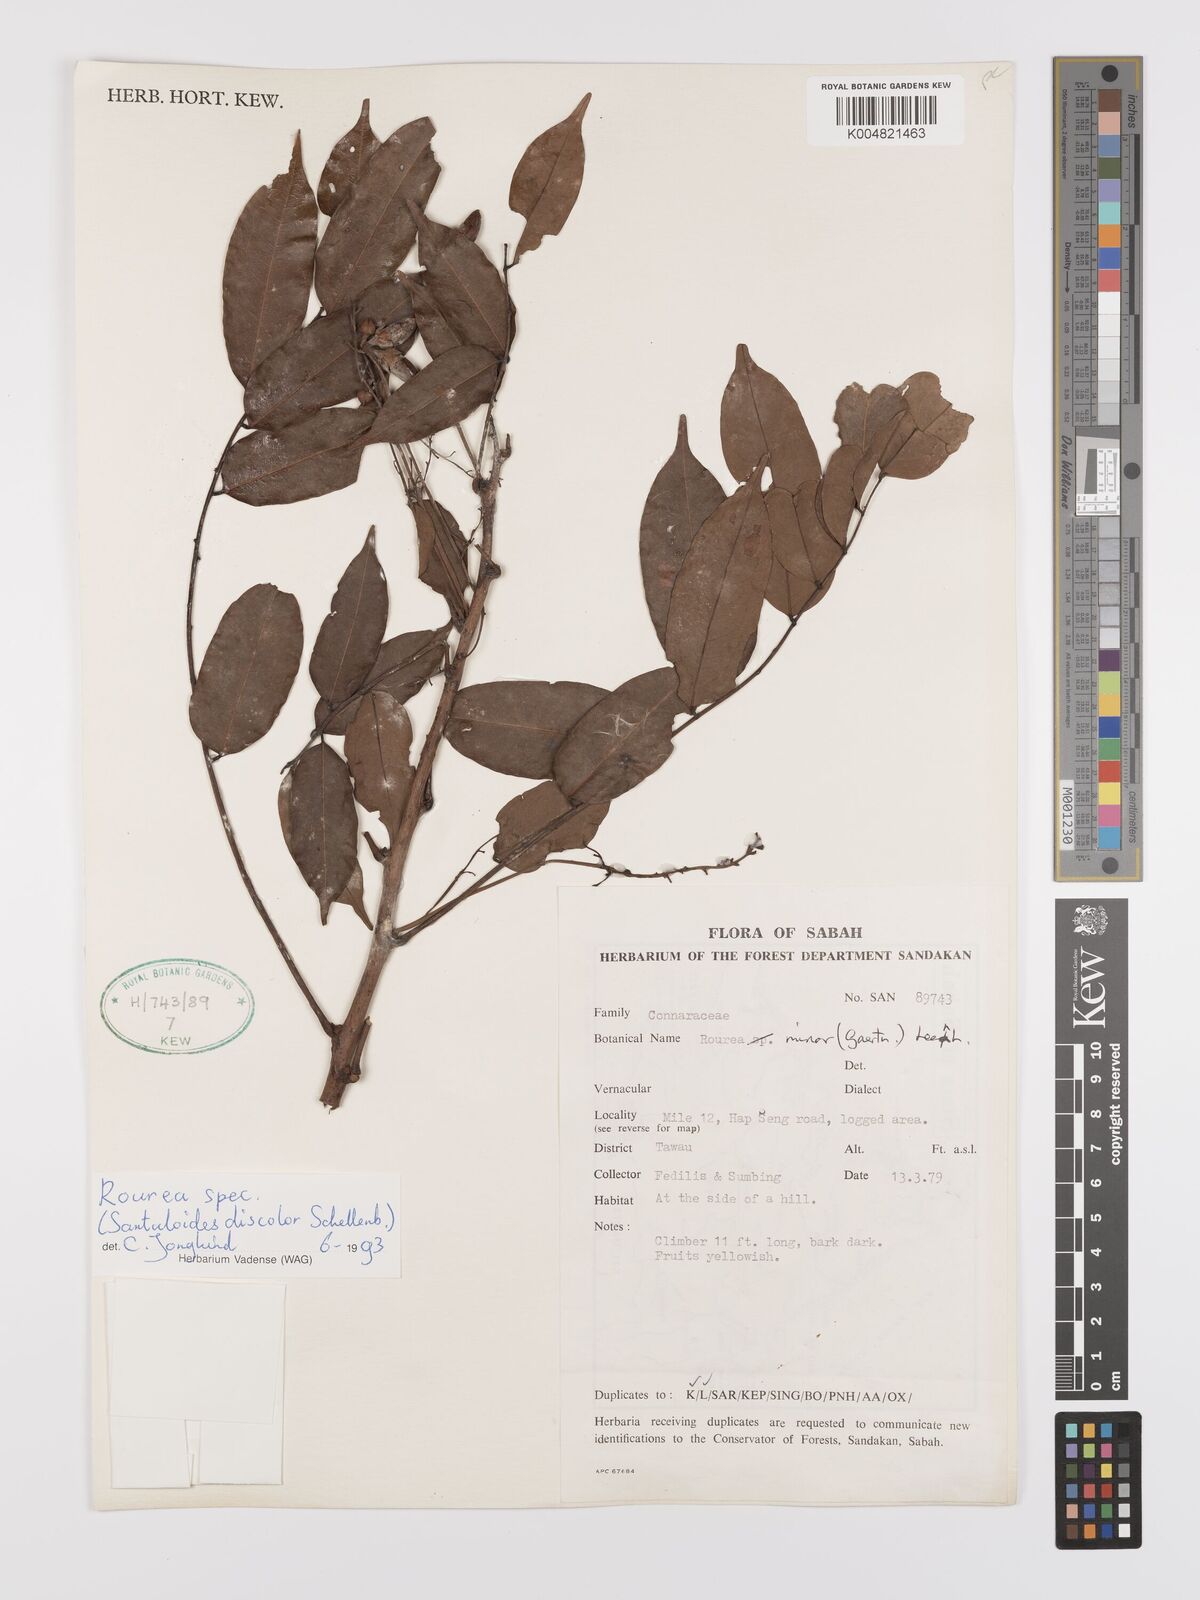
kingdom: Plantae
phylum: Tracheophyta
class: Magnoliopsida
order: Oxalidales
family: Connaraceae
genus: Rourea
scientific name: Rourea
